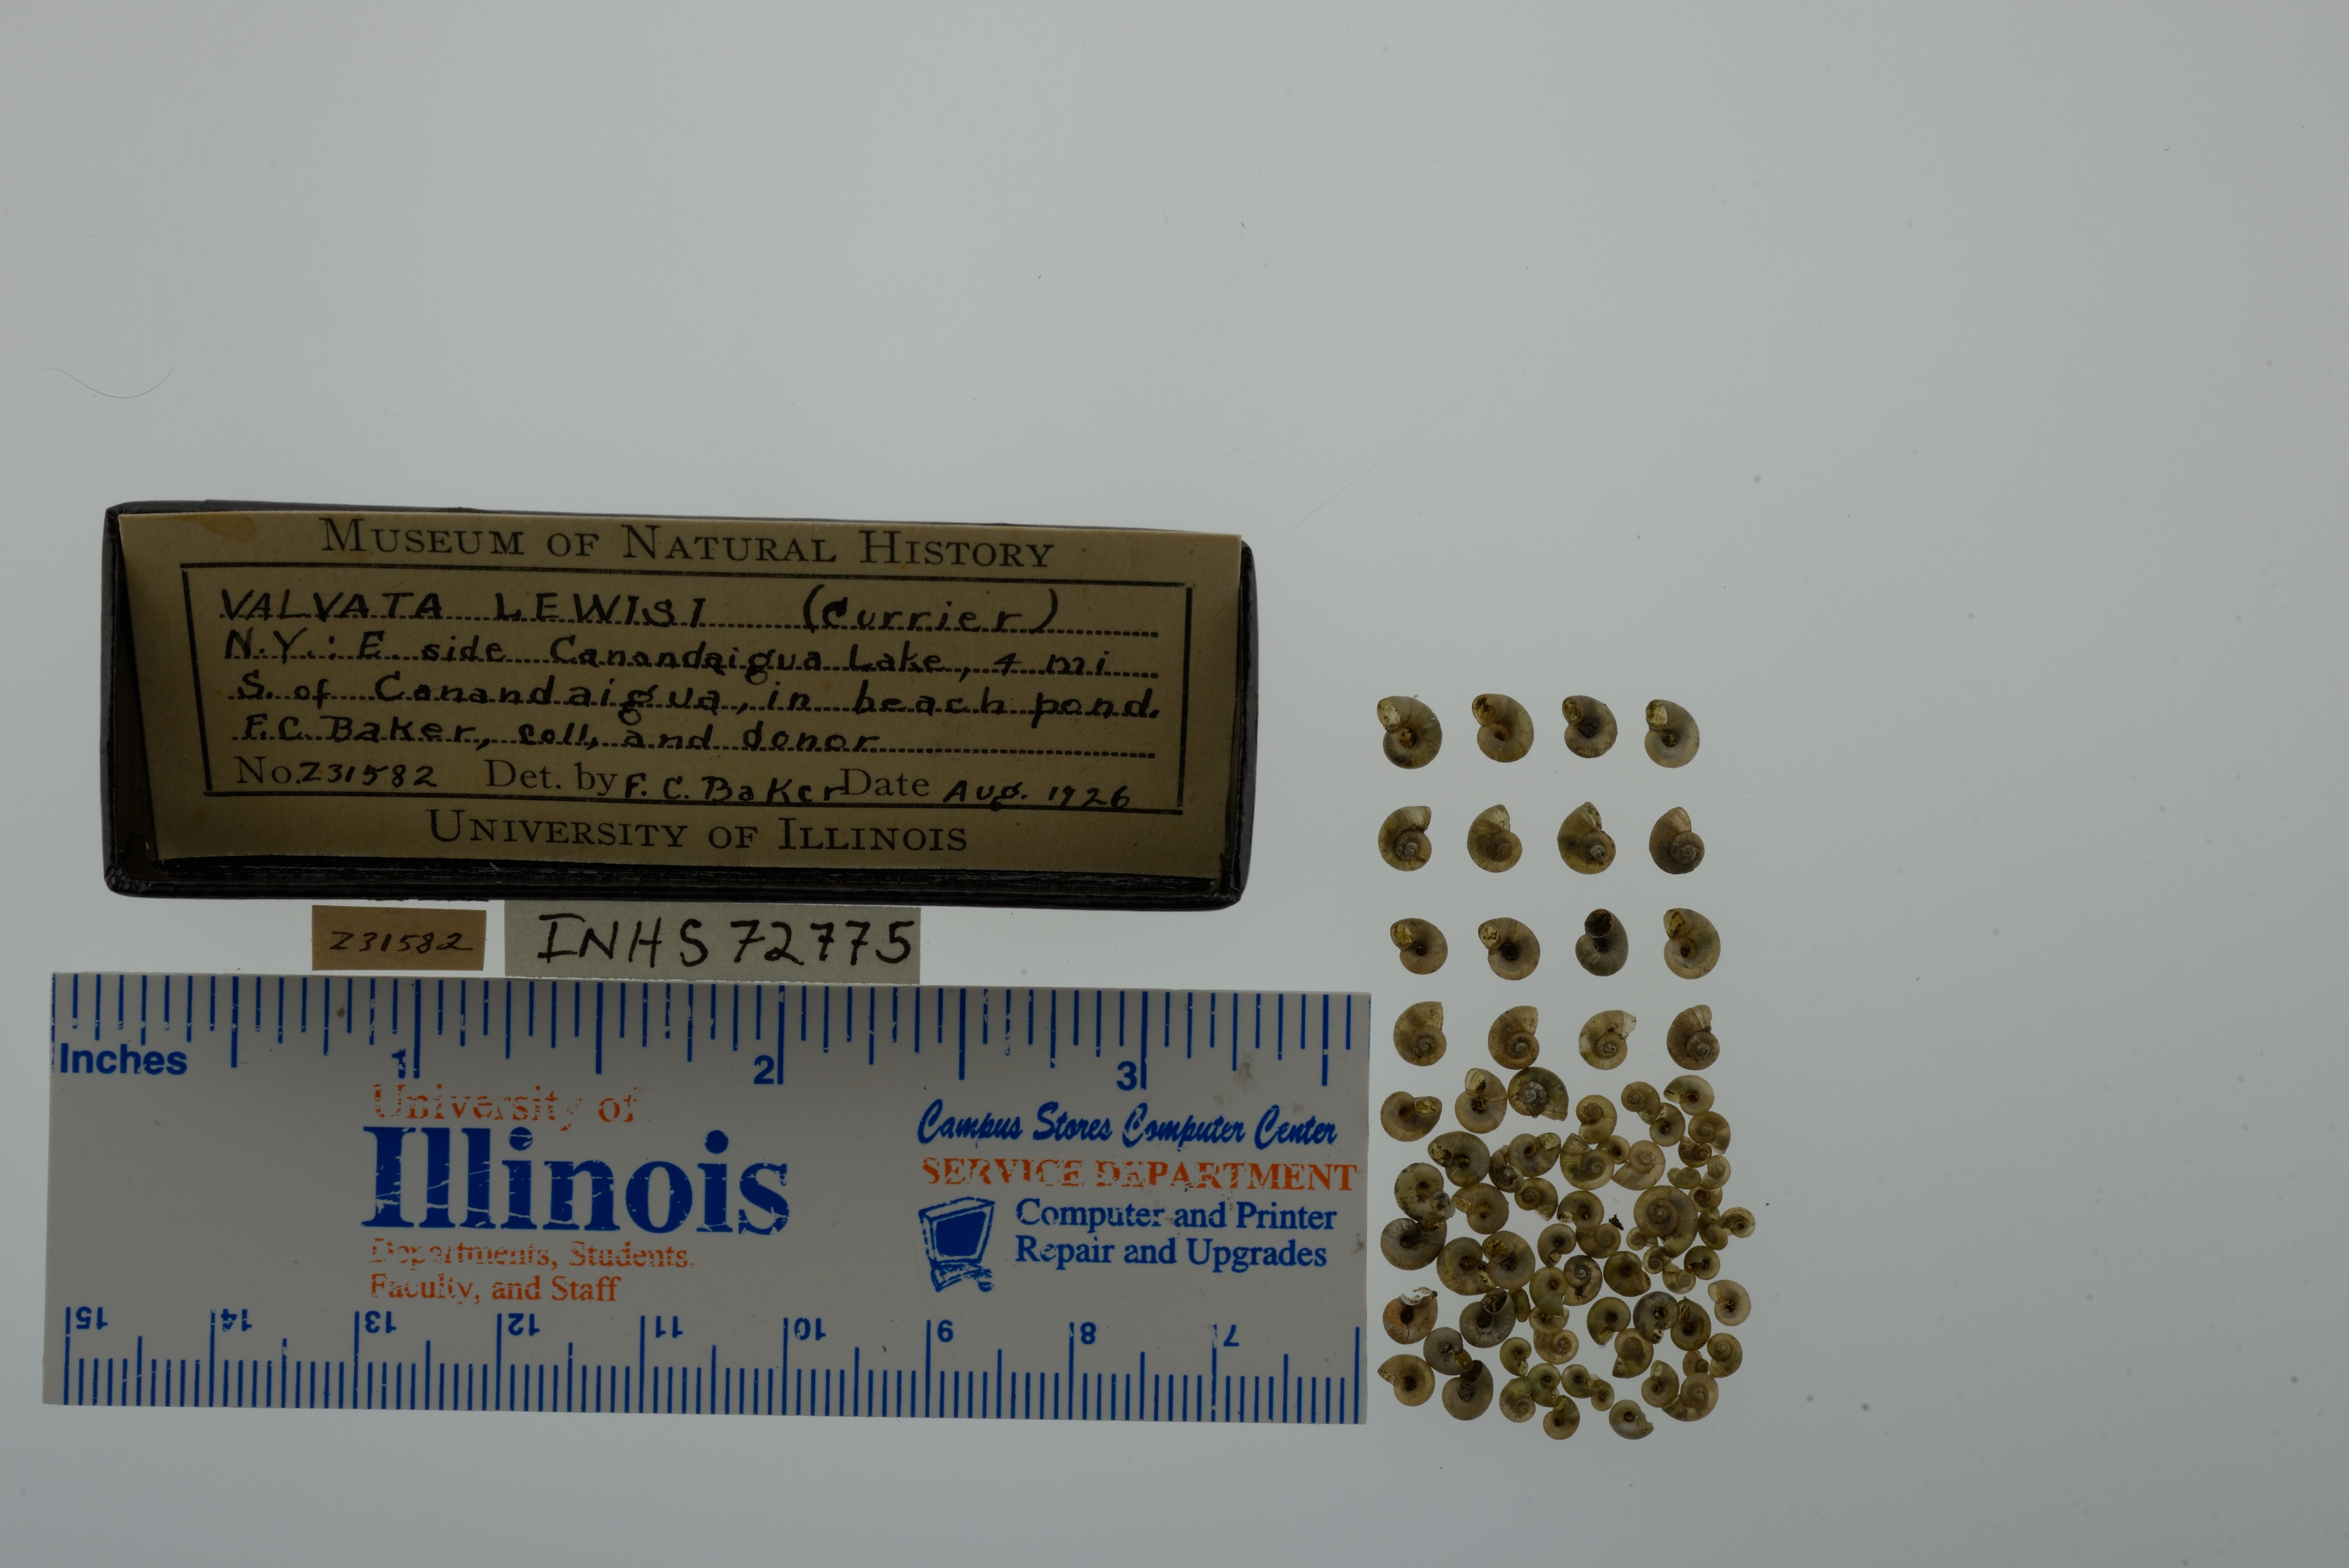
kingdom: Animalia
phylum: Mollusca
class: Gastropoda
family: Valvatidae
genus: Valvata
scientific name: Valvata lewisi
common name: Fringed valvata
